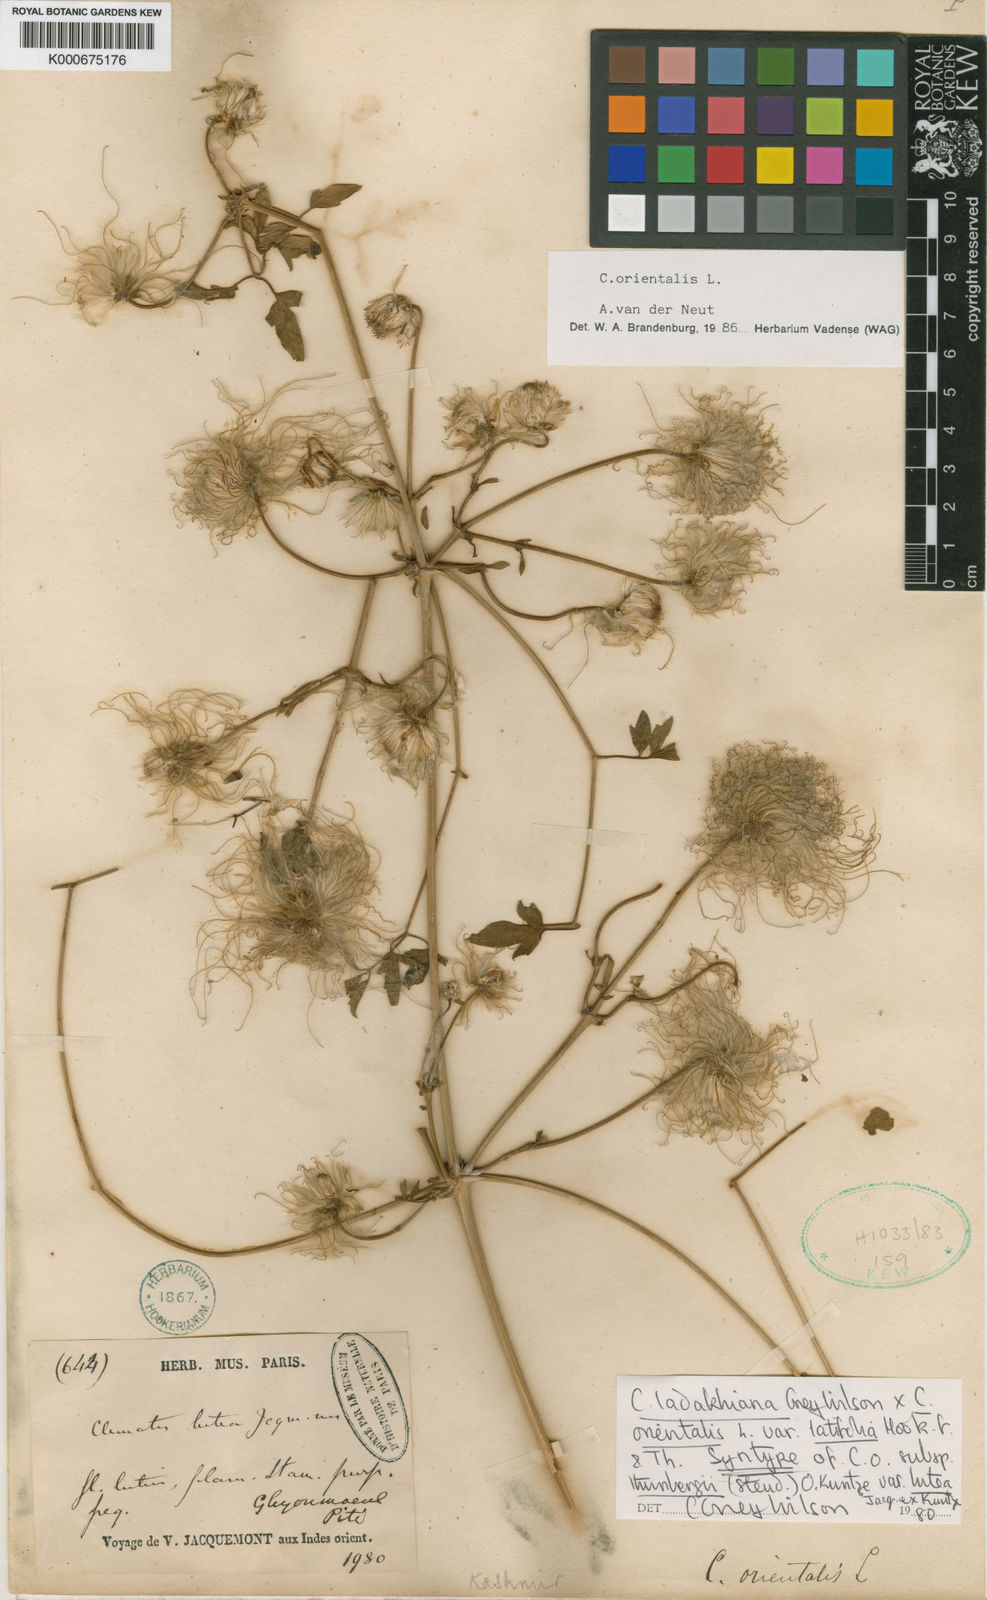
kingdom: Plantae
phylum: Tracheophyta
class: Magnoliopsida
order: Ranunculales
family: Ranunculaceae
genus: Clematis
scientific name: Clematis orientalis
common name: Oriental virgin's-bower
